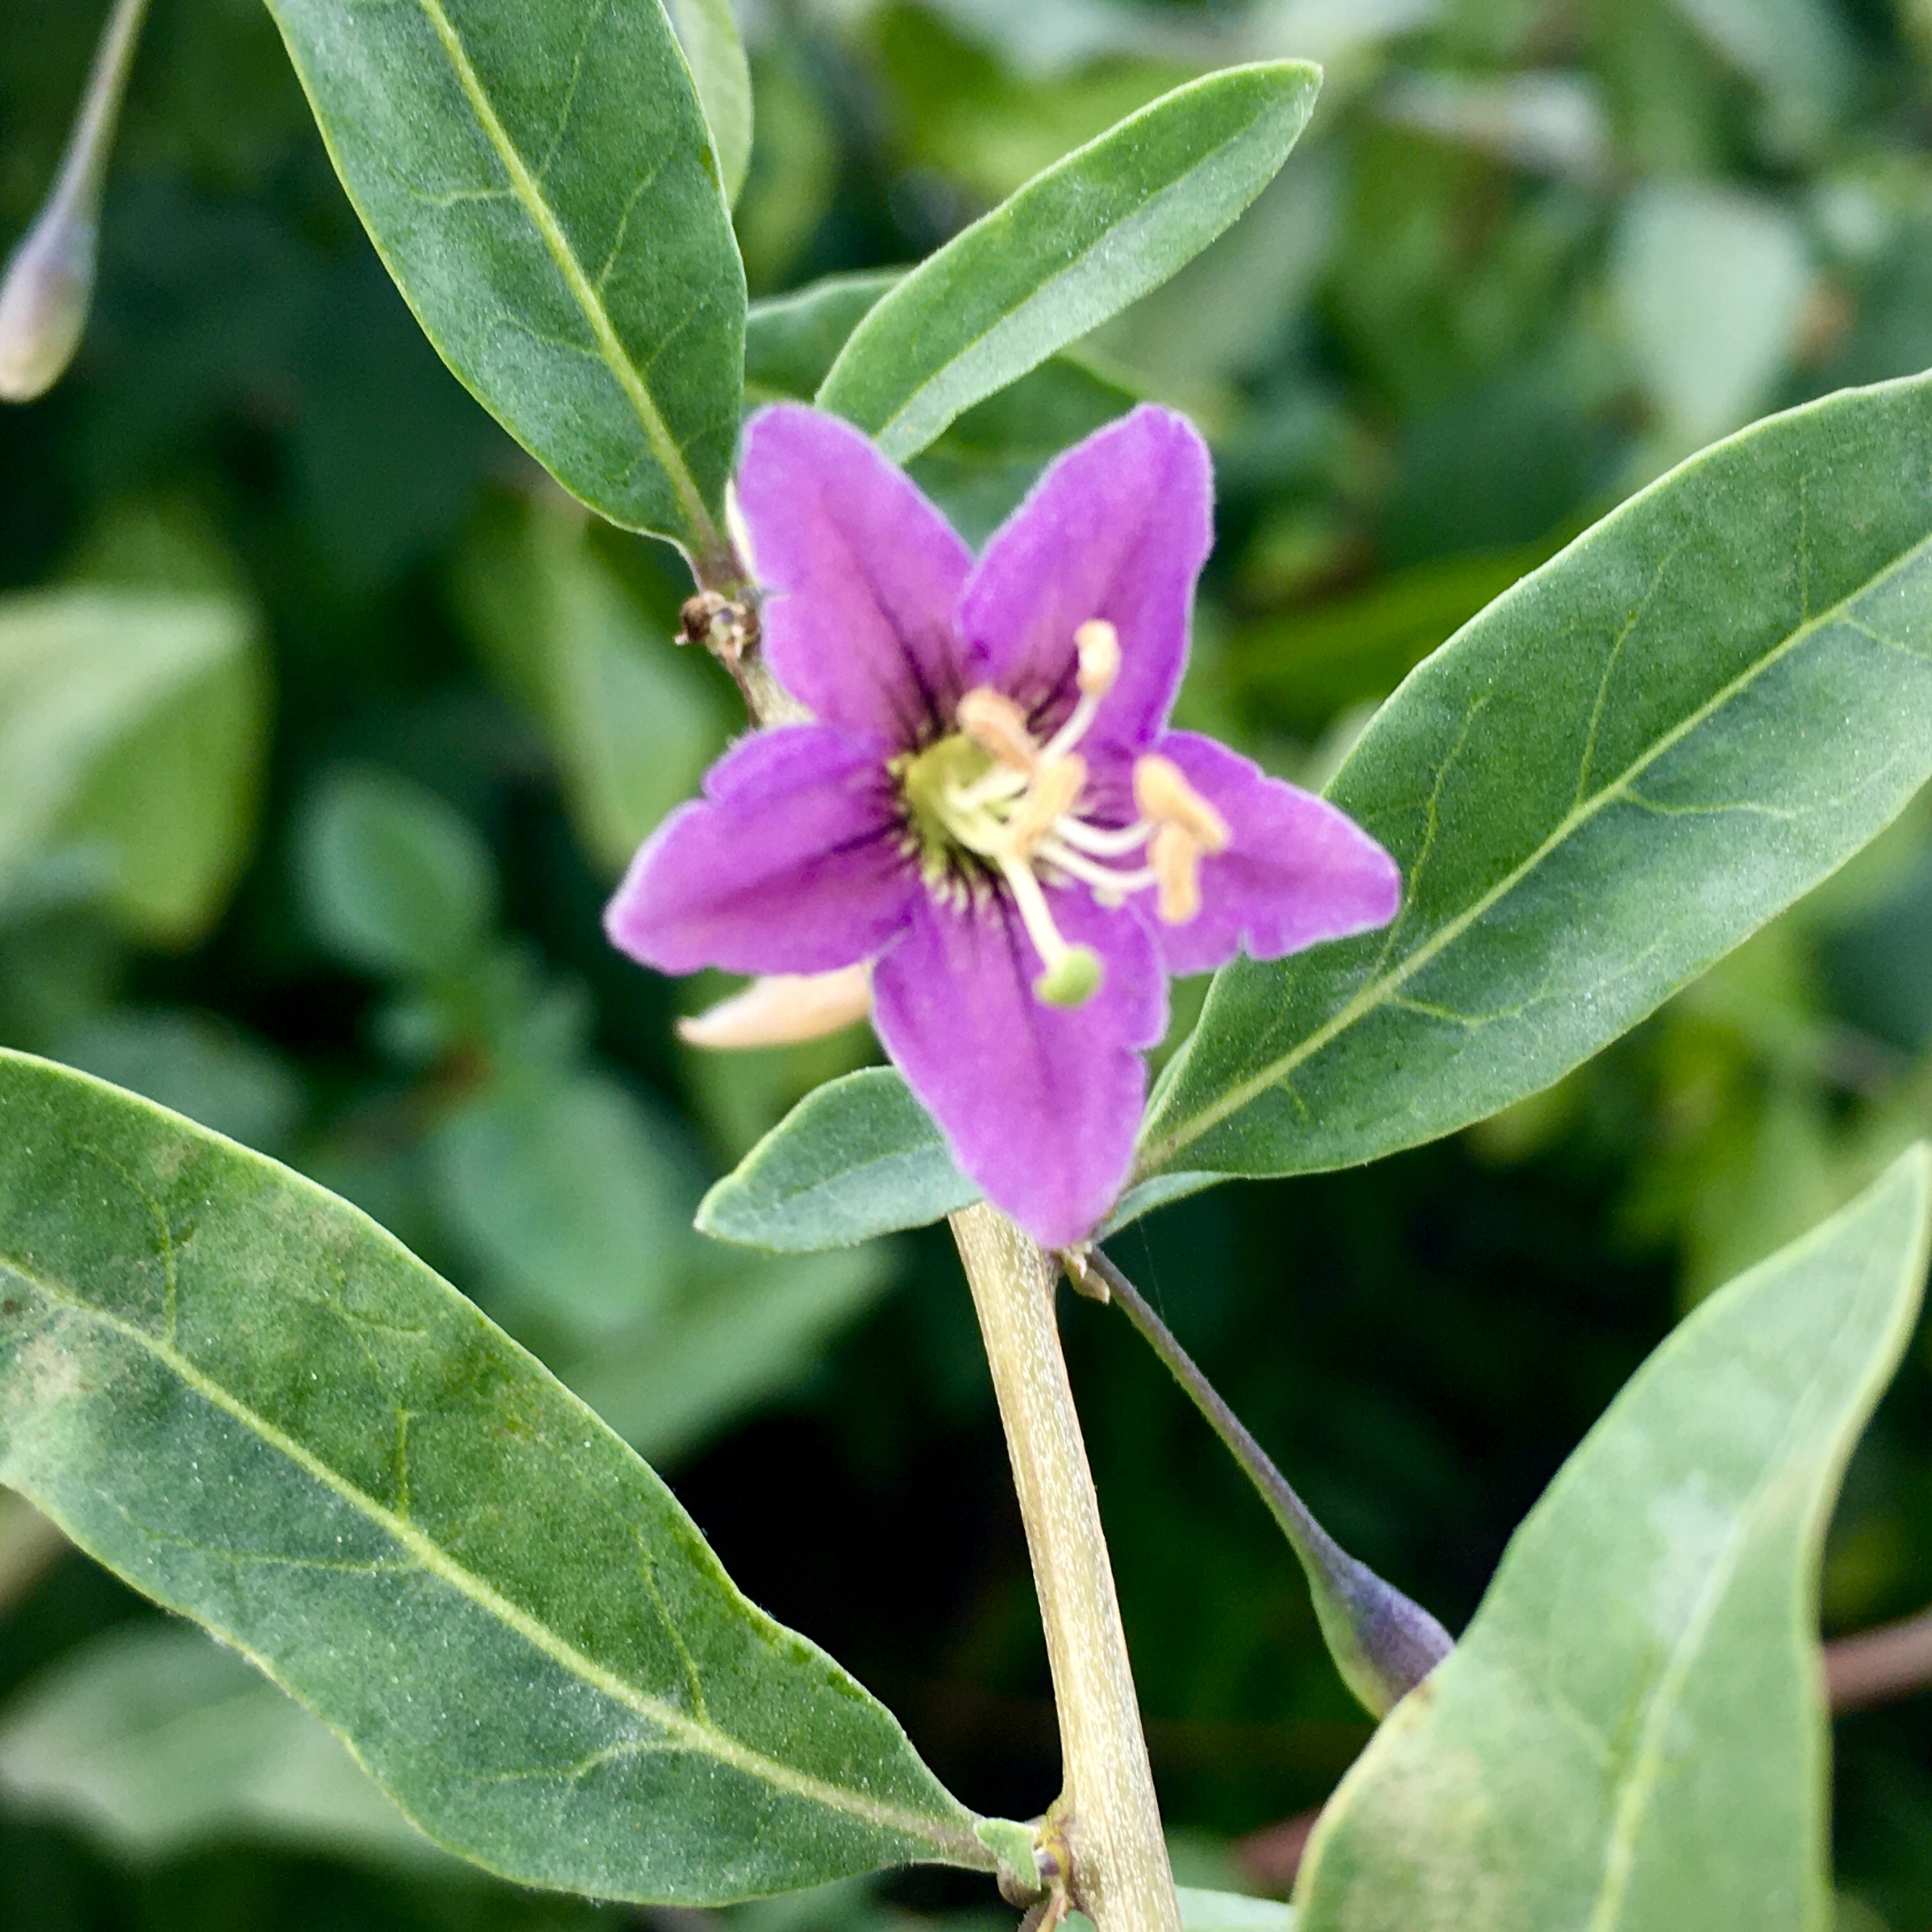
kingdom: Plantae
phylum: Tracheophyta
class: Magnoliopsida
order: Solanales
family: Solanaceae
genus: Lycium
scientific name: Lycium barbarum
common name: Bukketorn
